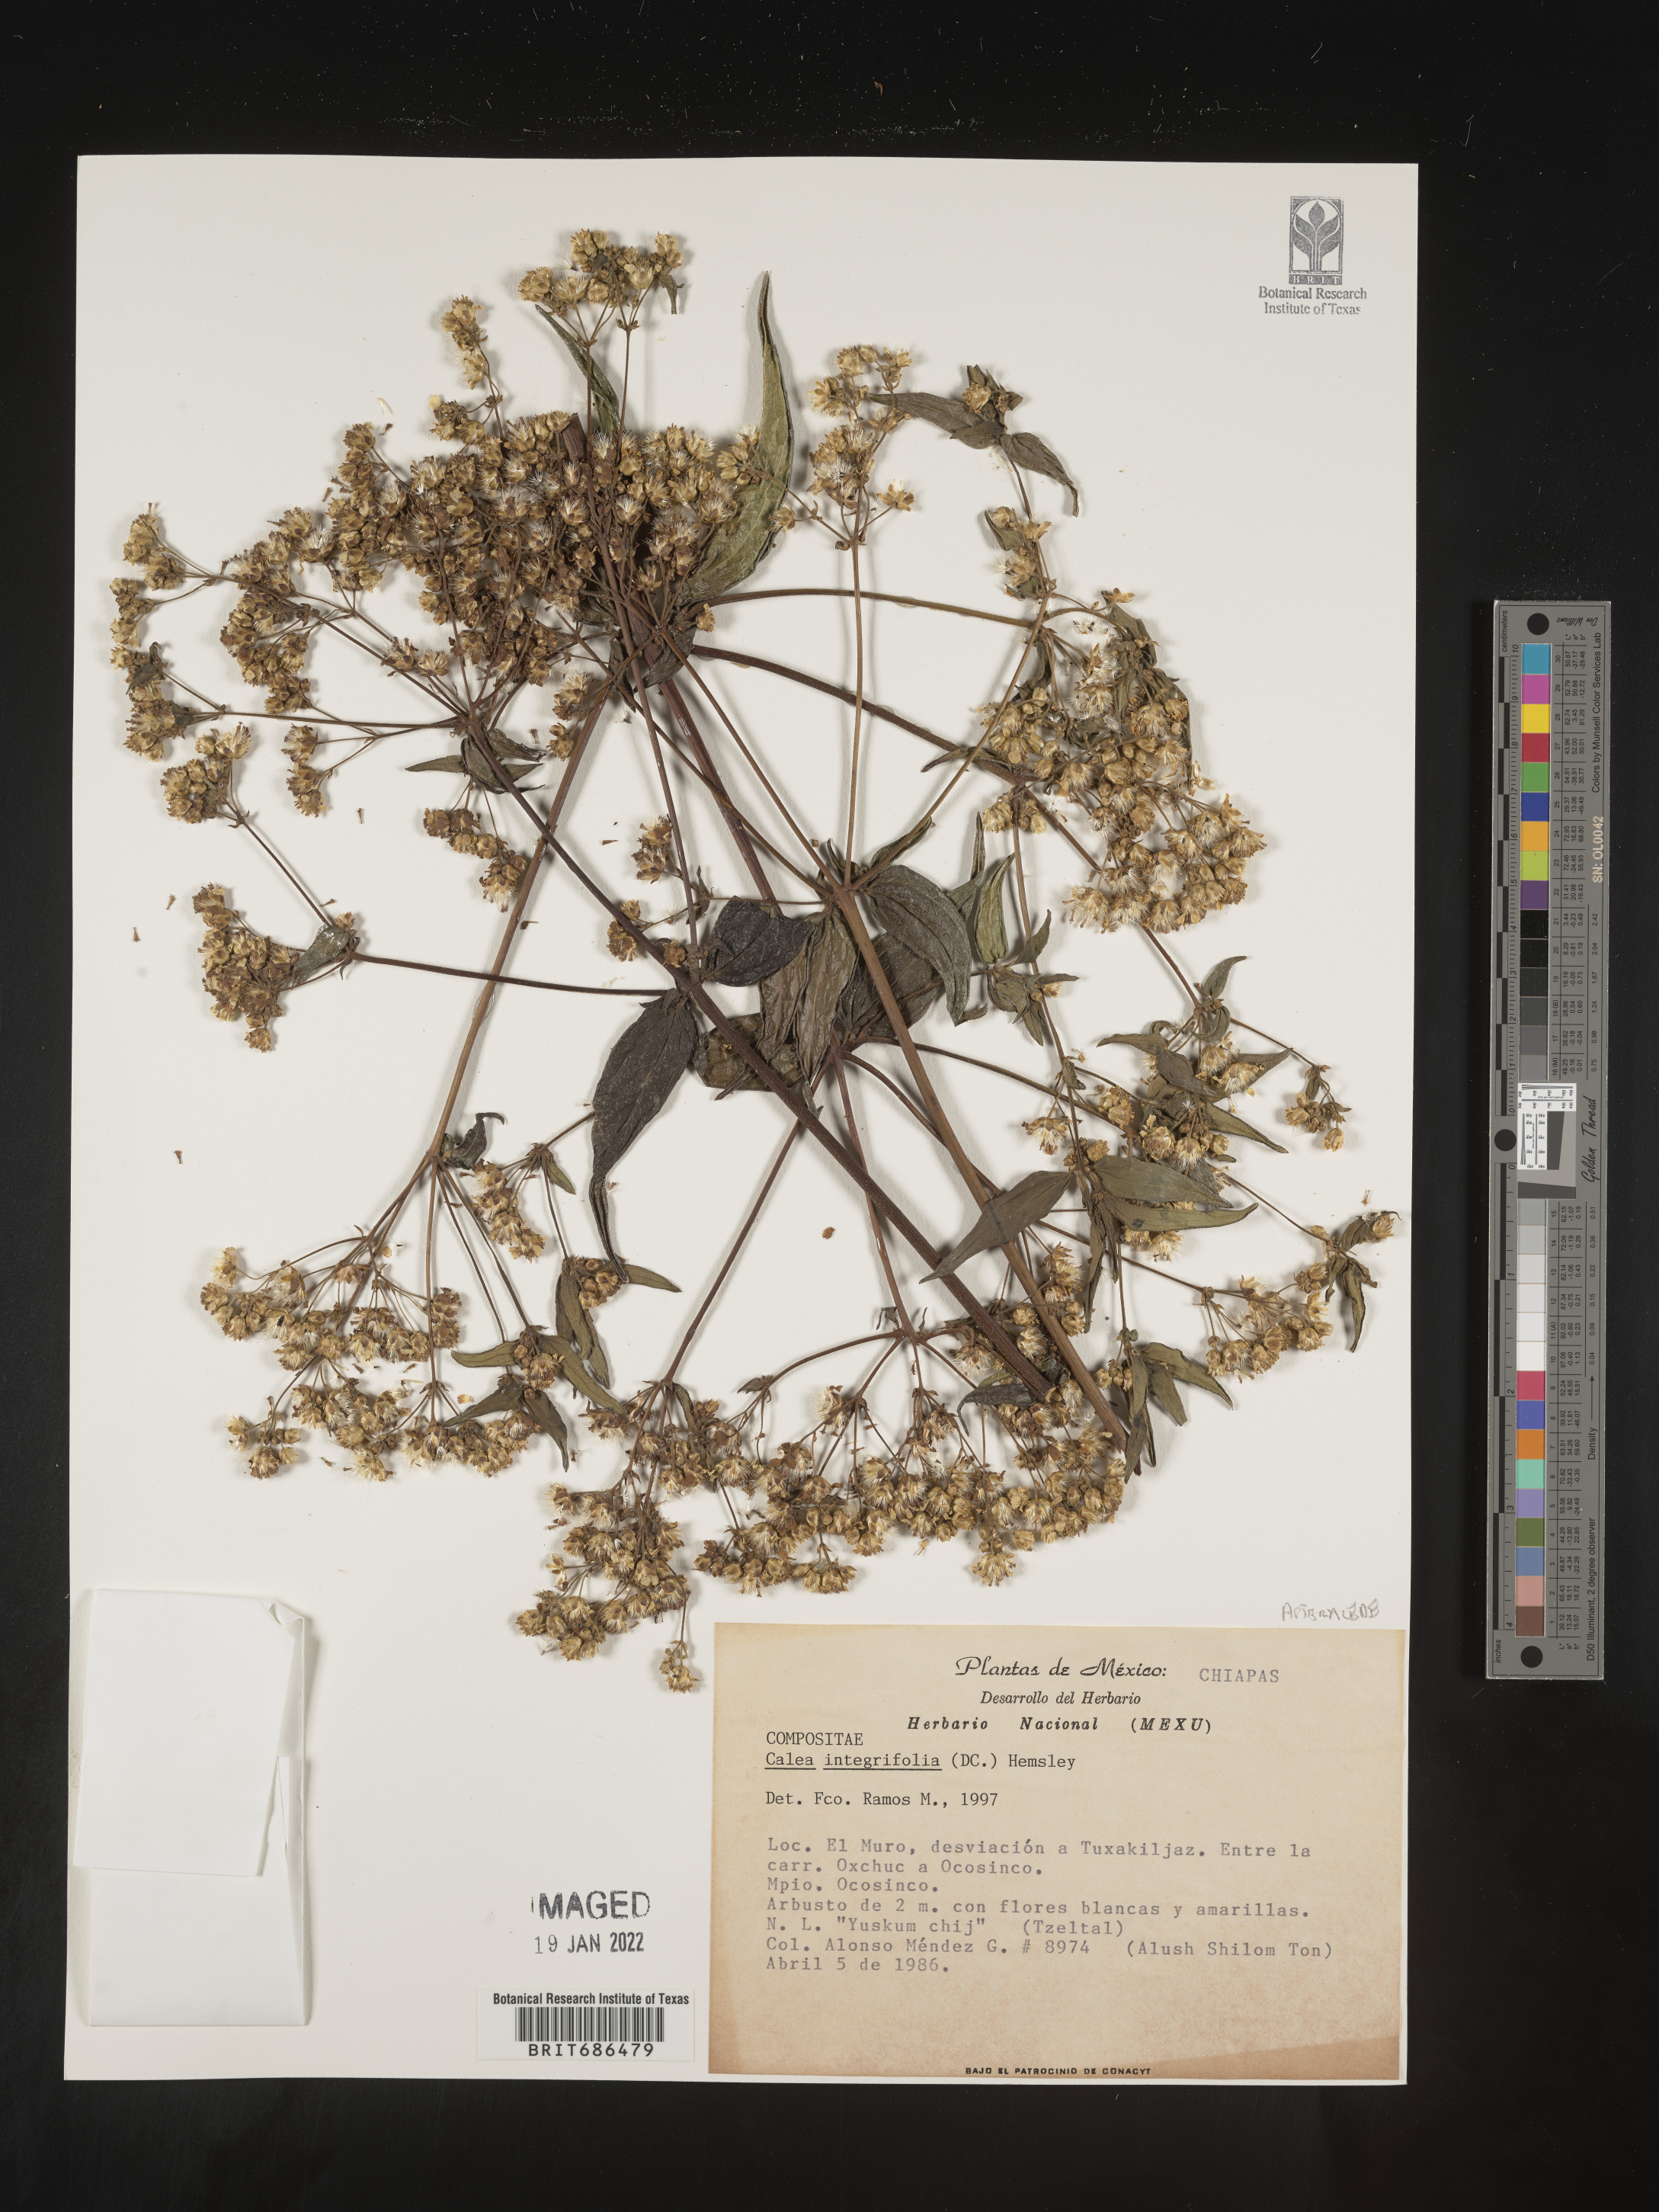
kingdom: Plantae
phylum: Tracheophyta
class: Magnoliopsida
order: Asterales
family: Asteraceae
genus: Alloispermum
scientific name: Alloispermum integrifolium
